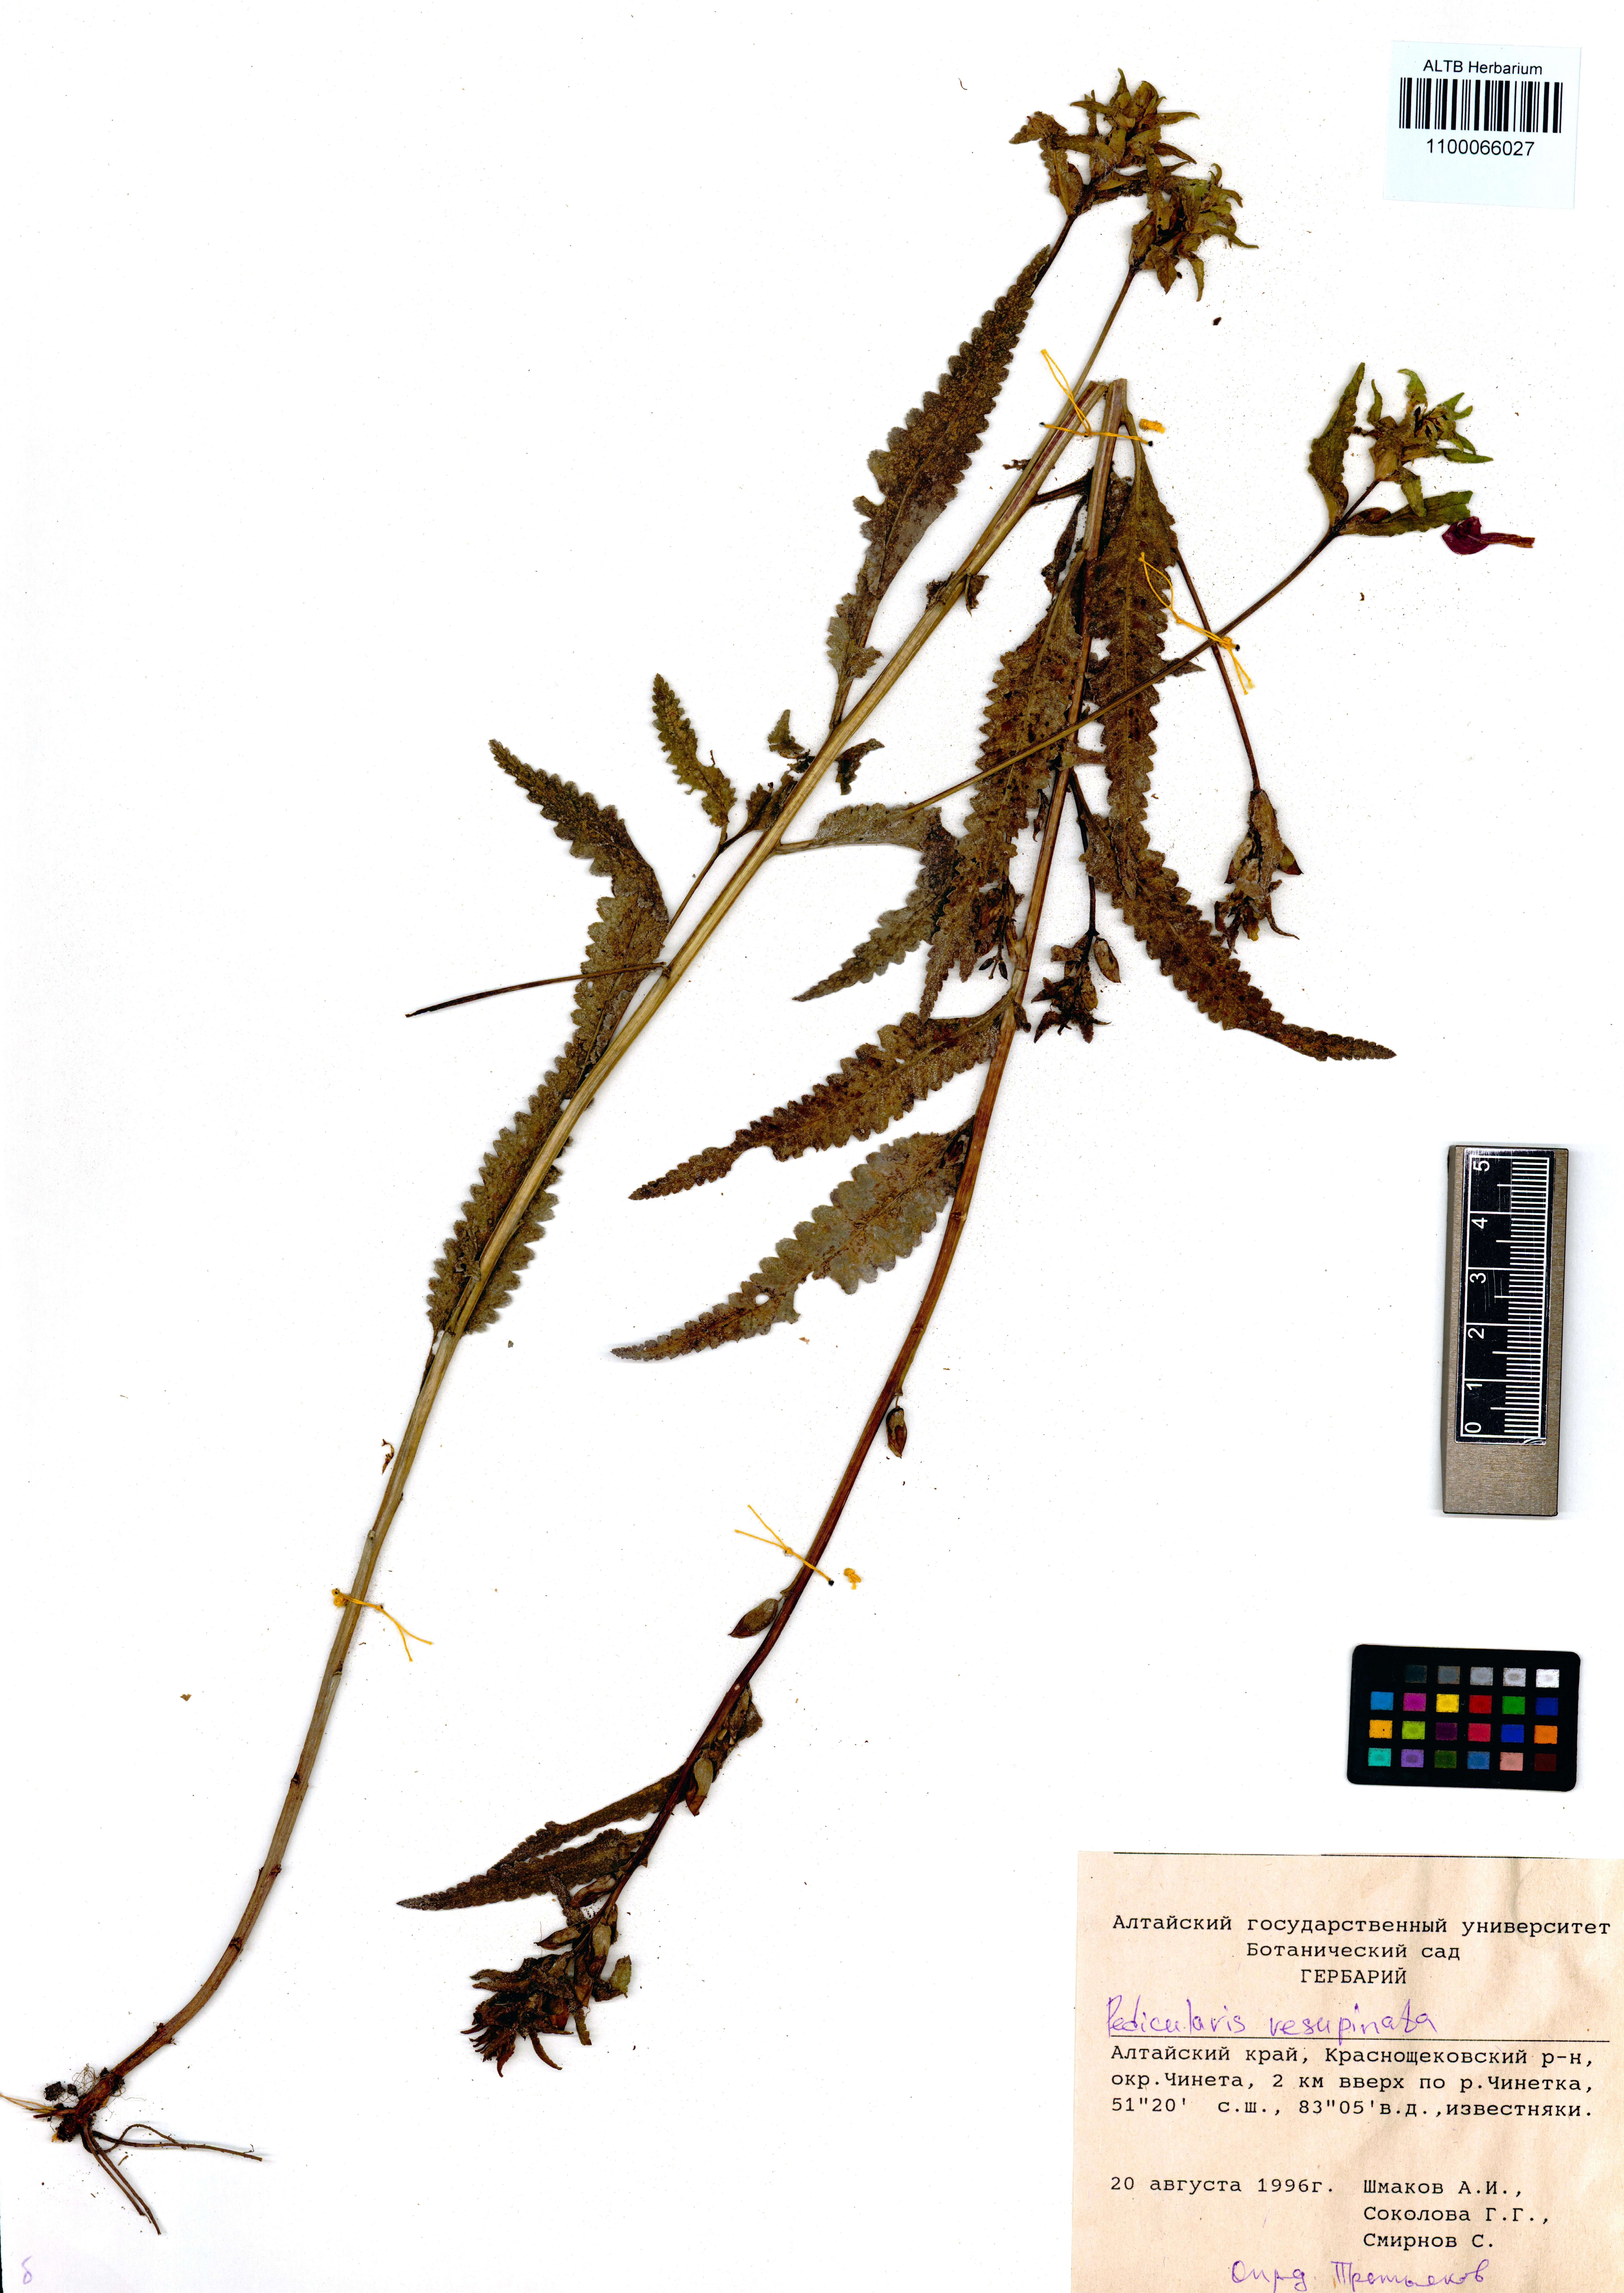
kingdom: Plantae
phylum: Tracheophyta
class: Magnoliopsida
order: Lamiales
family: Orobanchaceae
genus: Pedicularis
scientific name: Pedicularis resupinata
